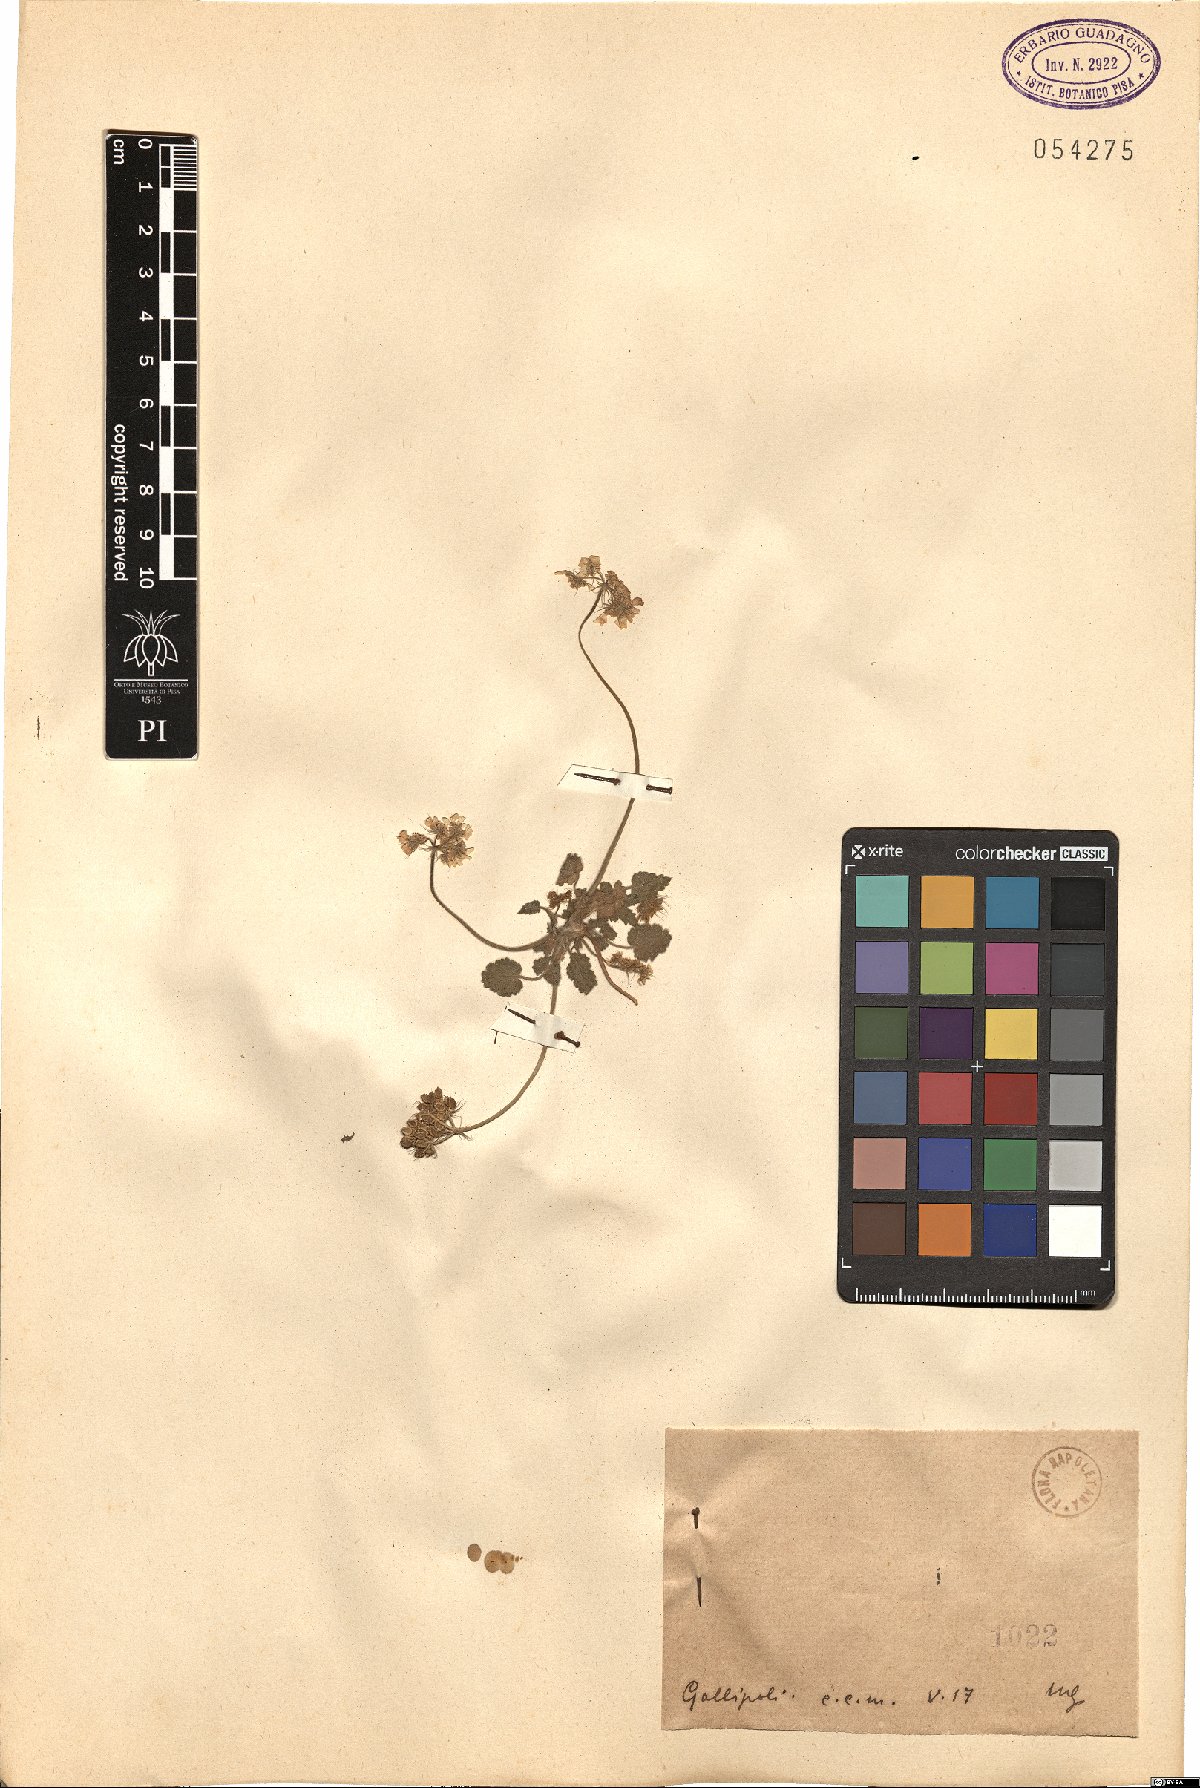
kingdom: Plantae
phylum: Tracheophyta
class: Magnoliopsida
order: Apiales
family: Apiaceae
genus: Tordylium
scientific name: Tordylium
